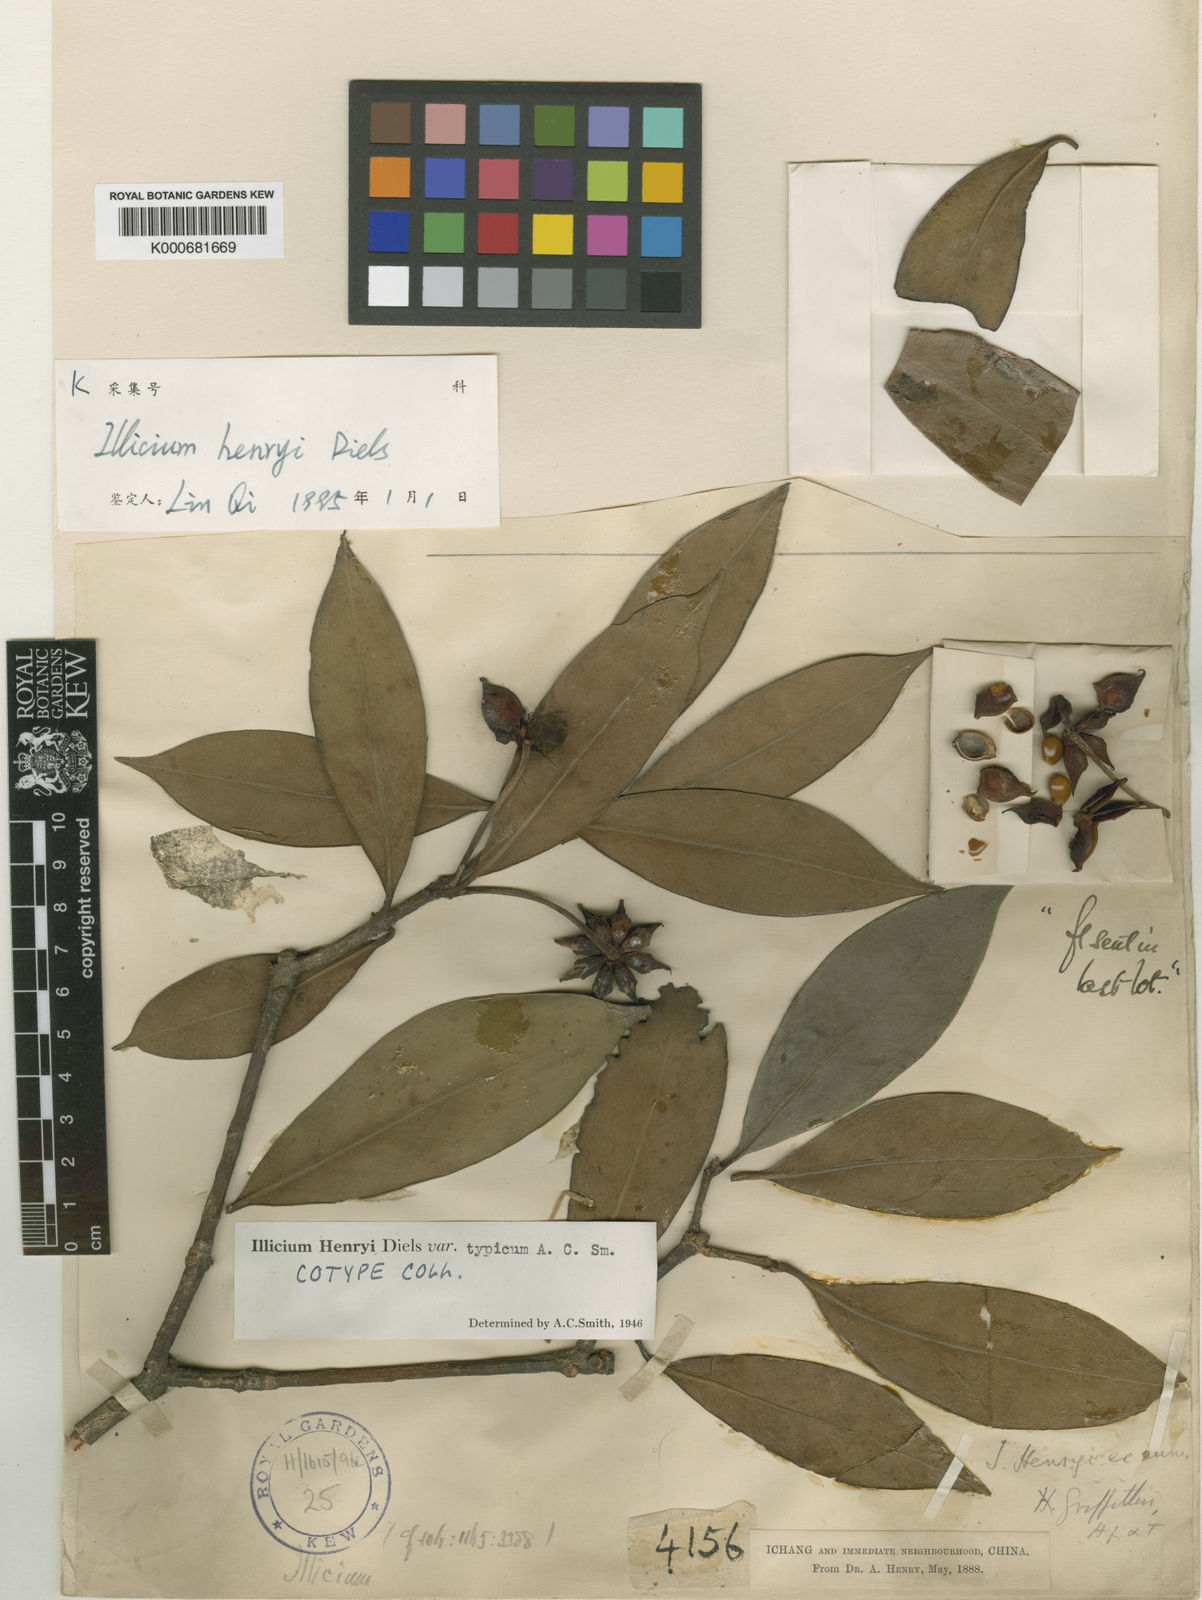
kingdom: Plantae
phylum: Tracheophyta
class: Magnoliopsida
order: Austrobaileyales
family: Schisandraceae
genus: Illicium
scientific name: Illicium henryi
